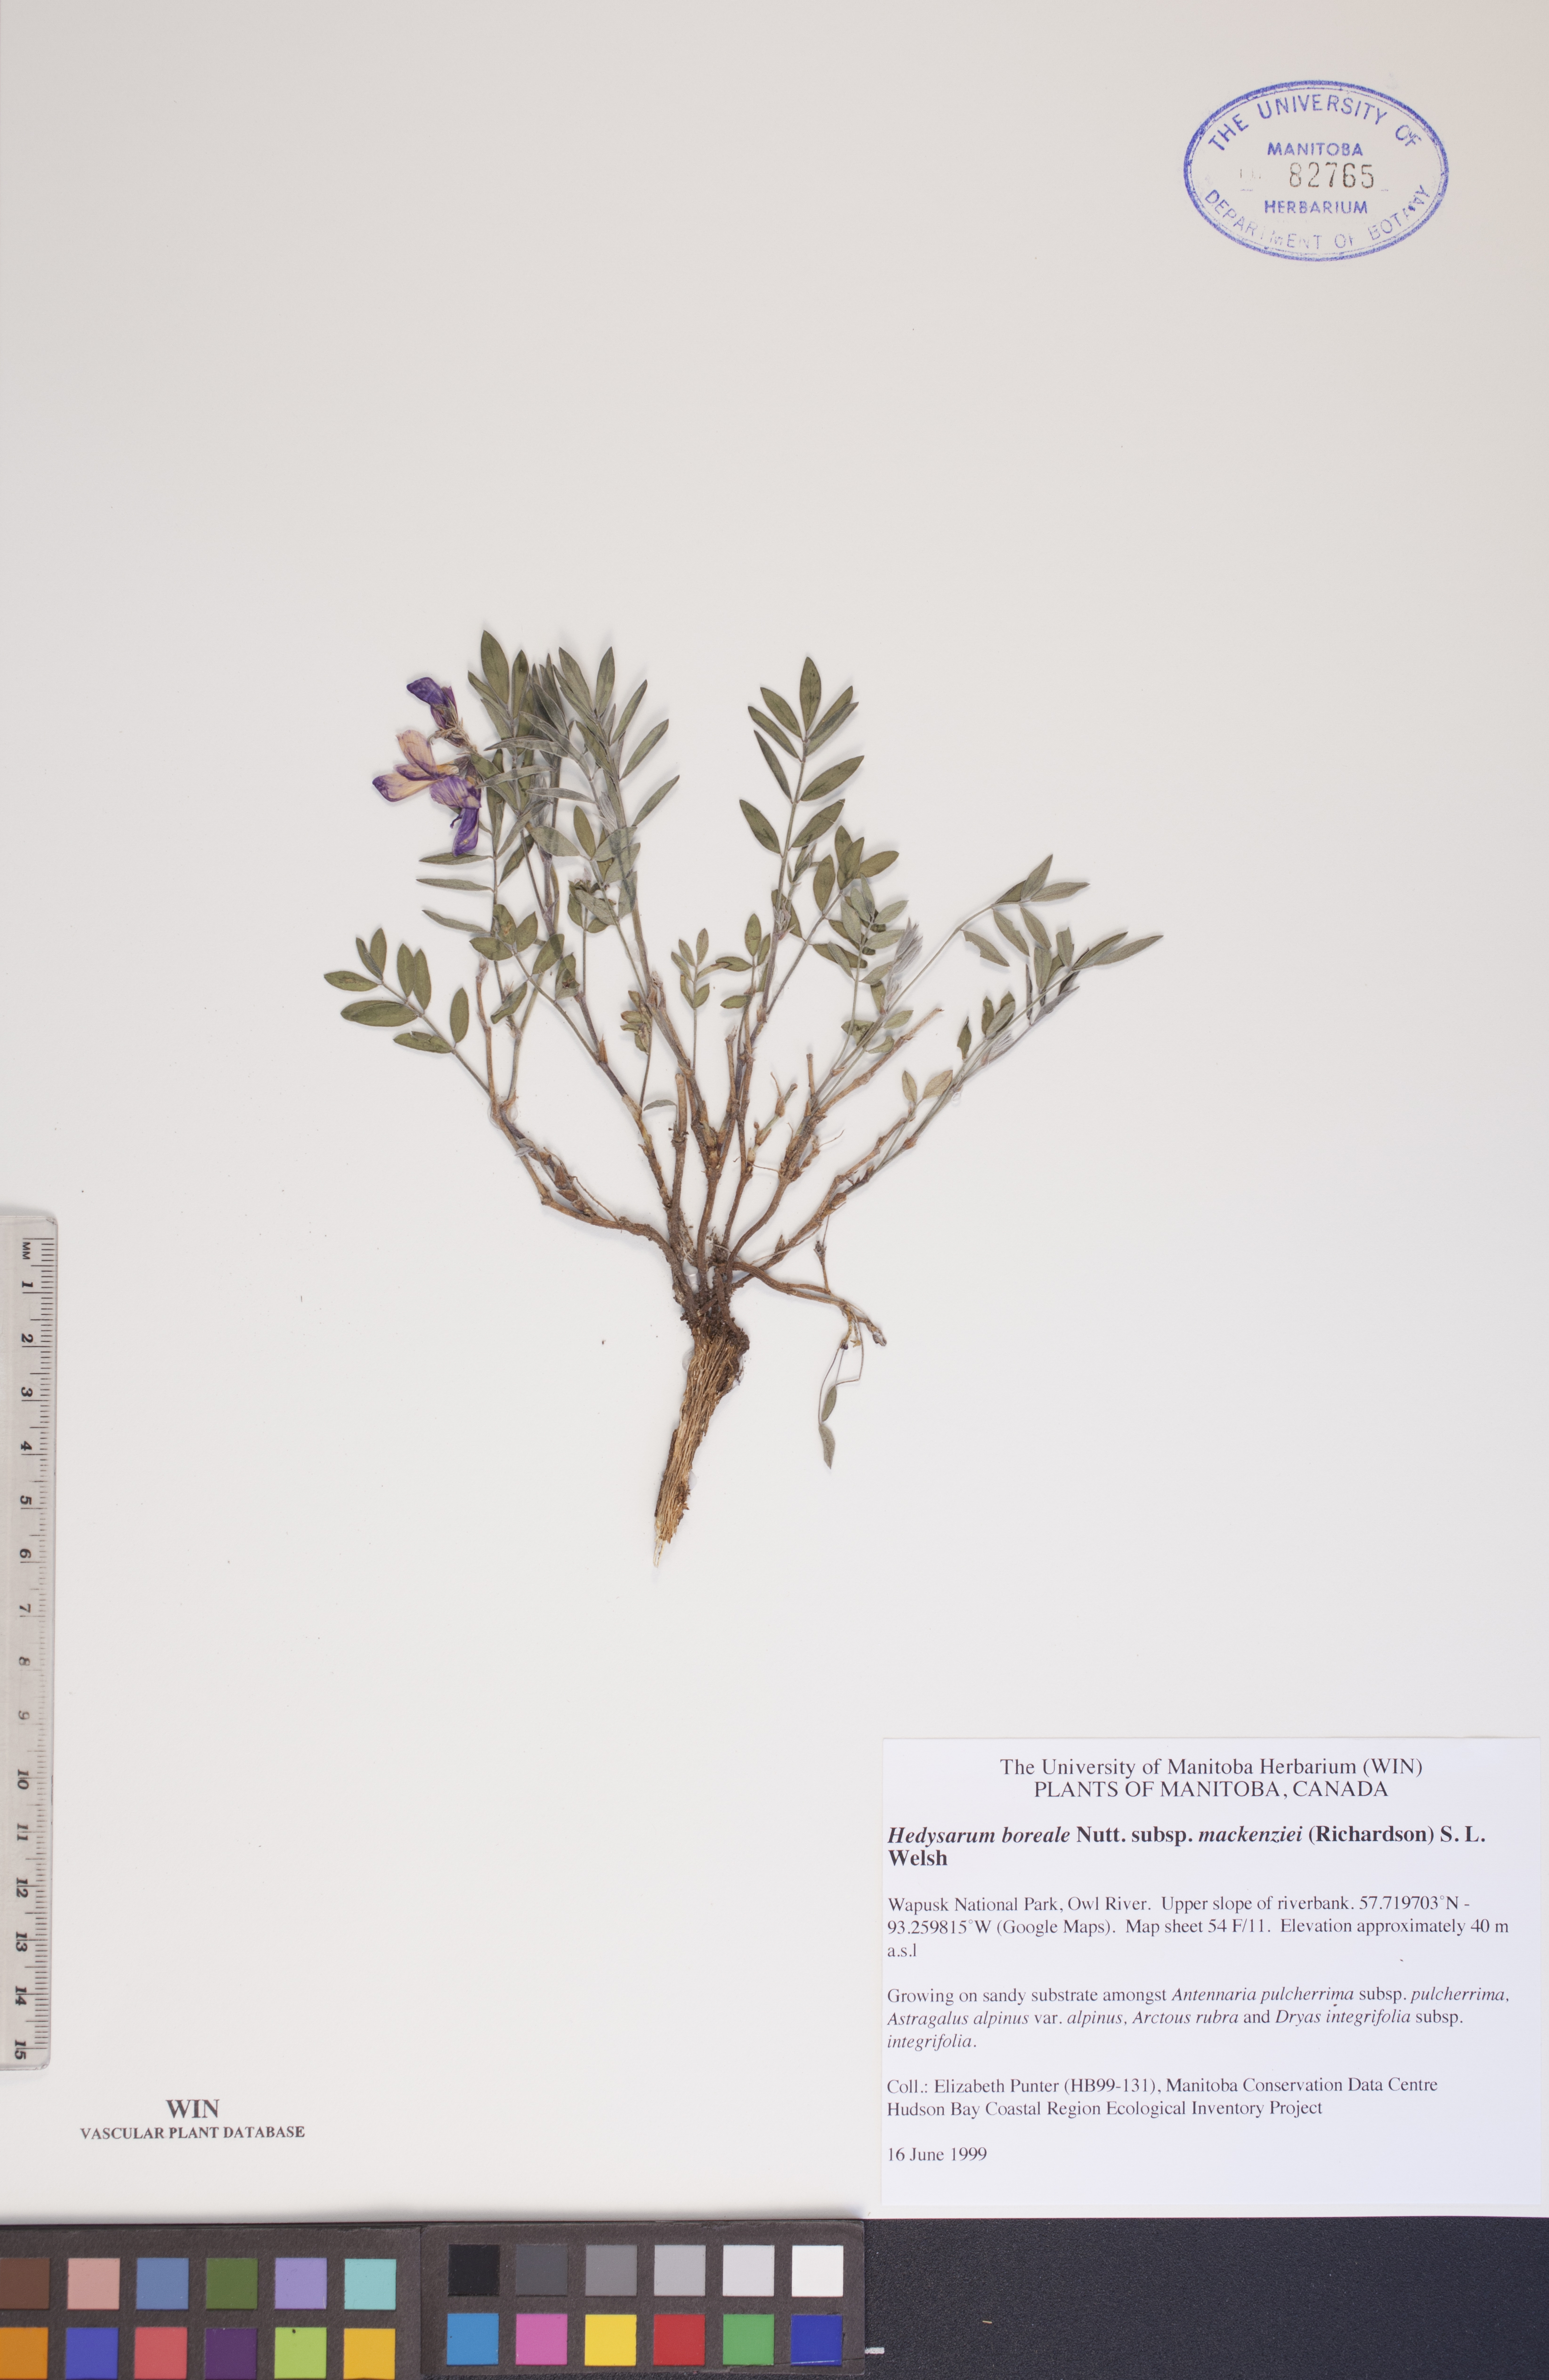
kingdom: Plantae
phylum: Tracheophyta
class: Magnoliopsida
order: Fabales
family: Fabaceae
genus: Hedysarum
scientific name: Hedysarum boreale
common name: Northern sweet-vetch
